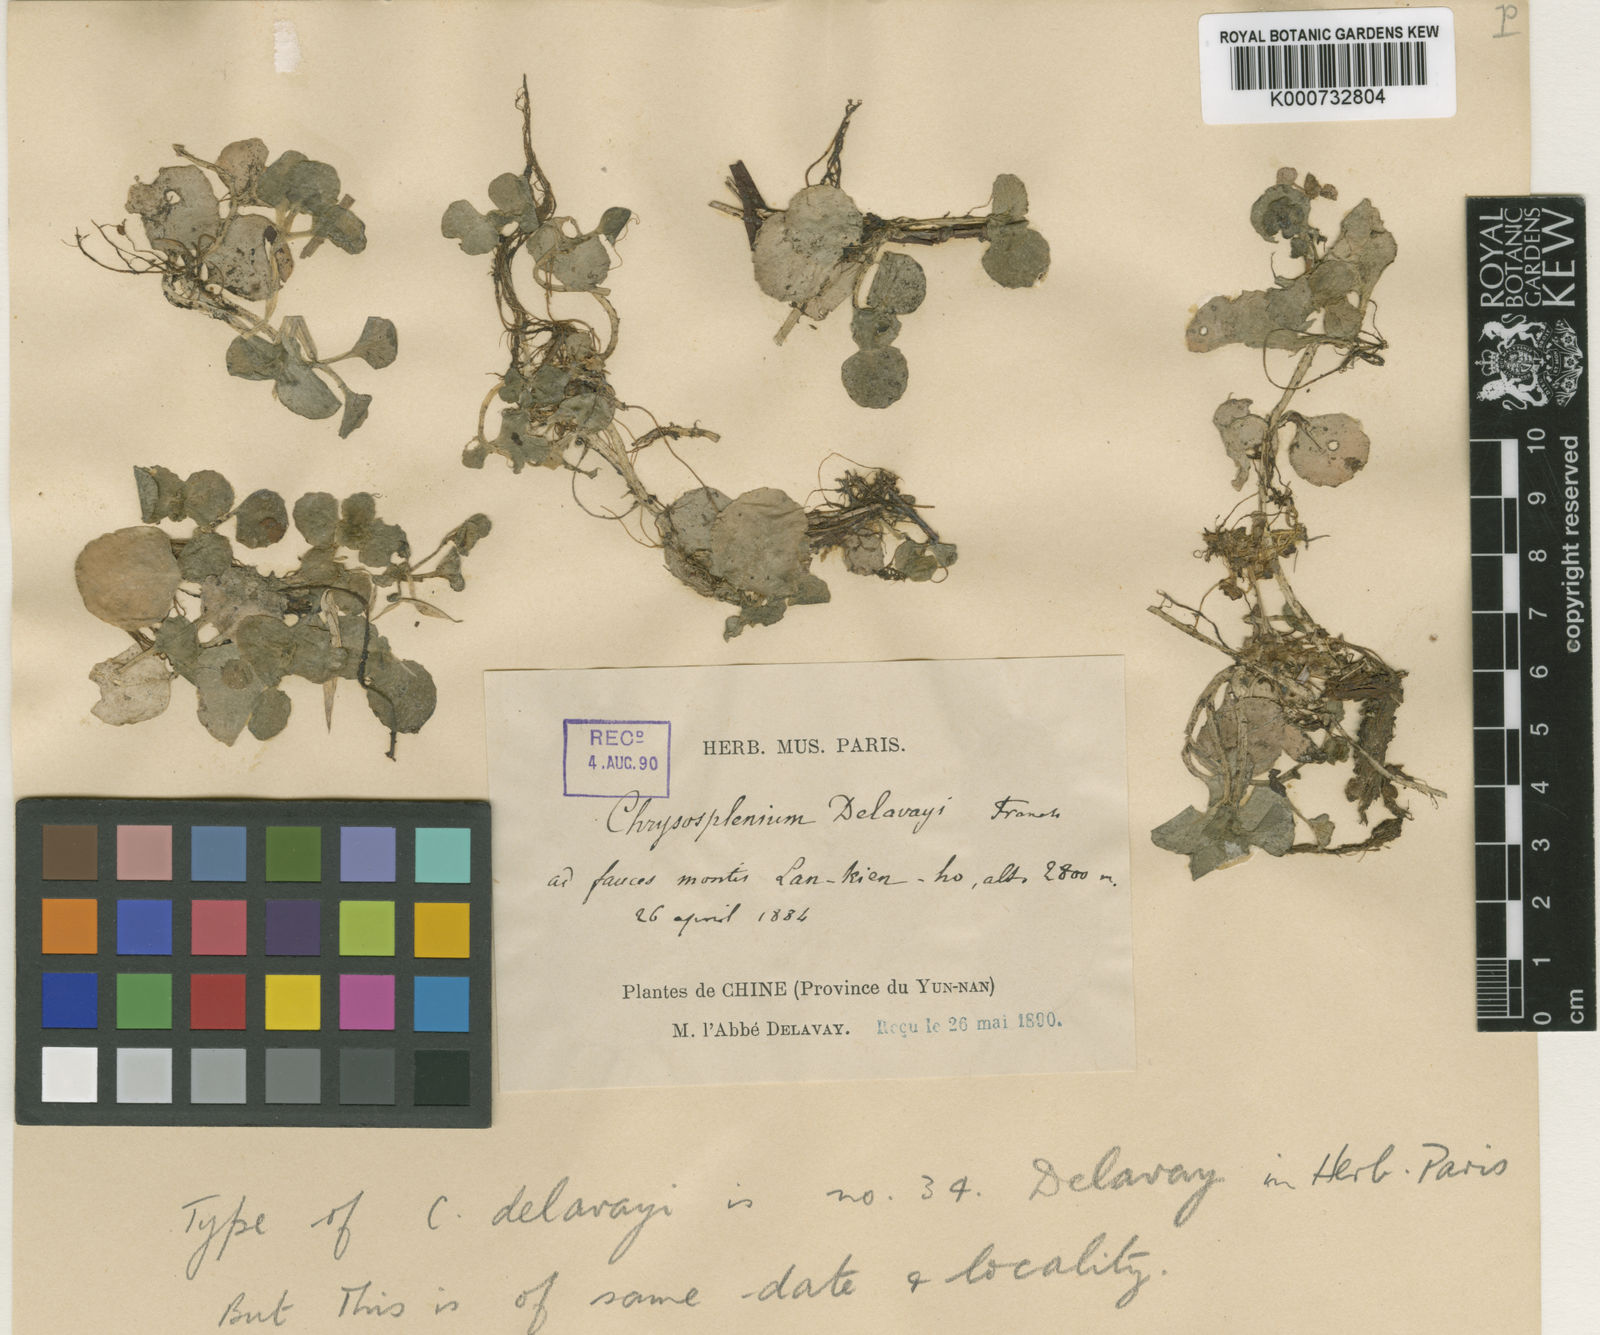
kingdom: Plantae
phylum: Tracheophyta
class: Magnoliopsida
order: Saxifragales
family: Saxifragaceae
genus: Chrysosplenium
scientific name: Chrysosplenium
